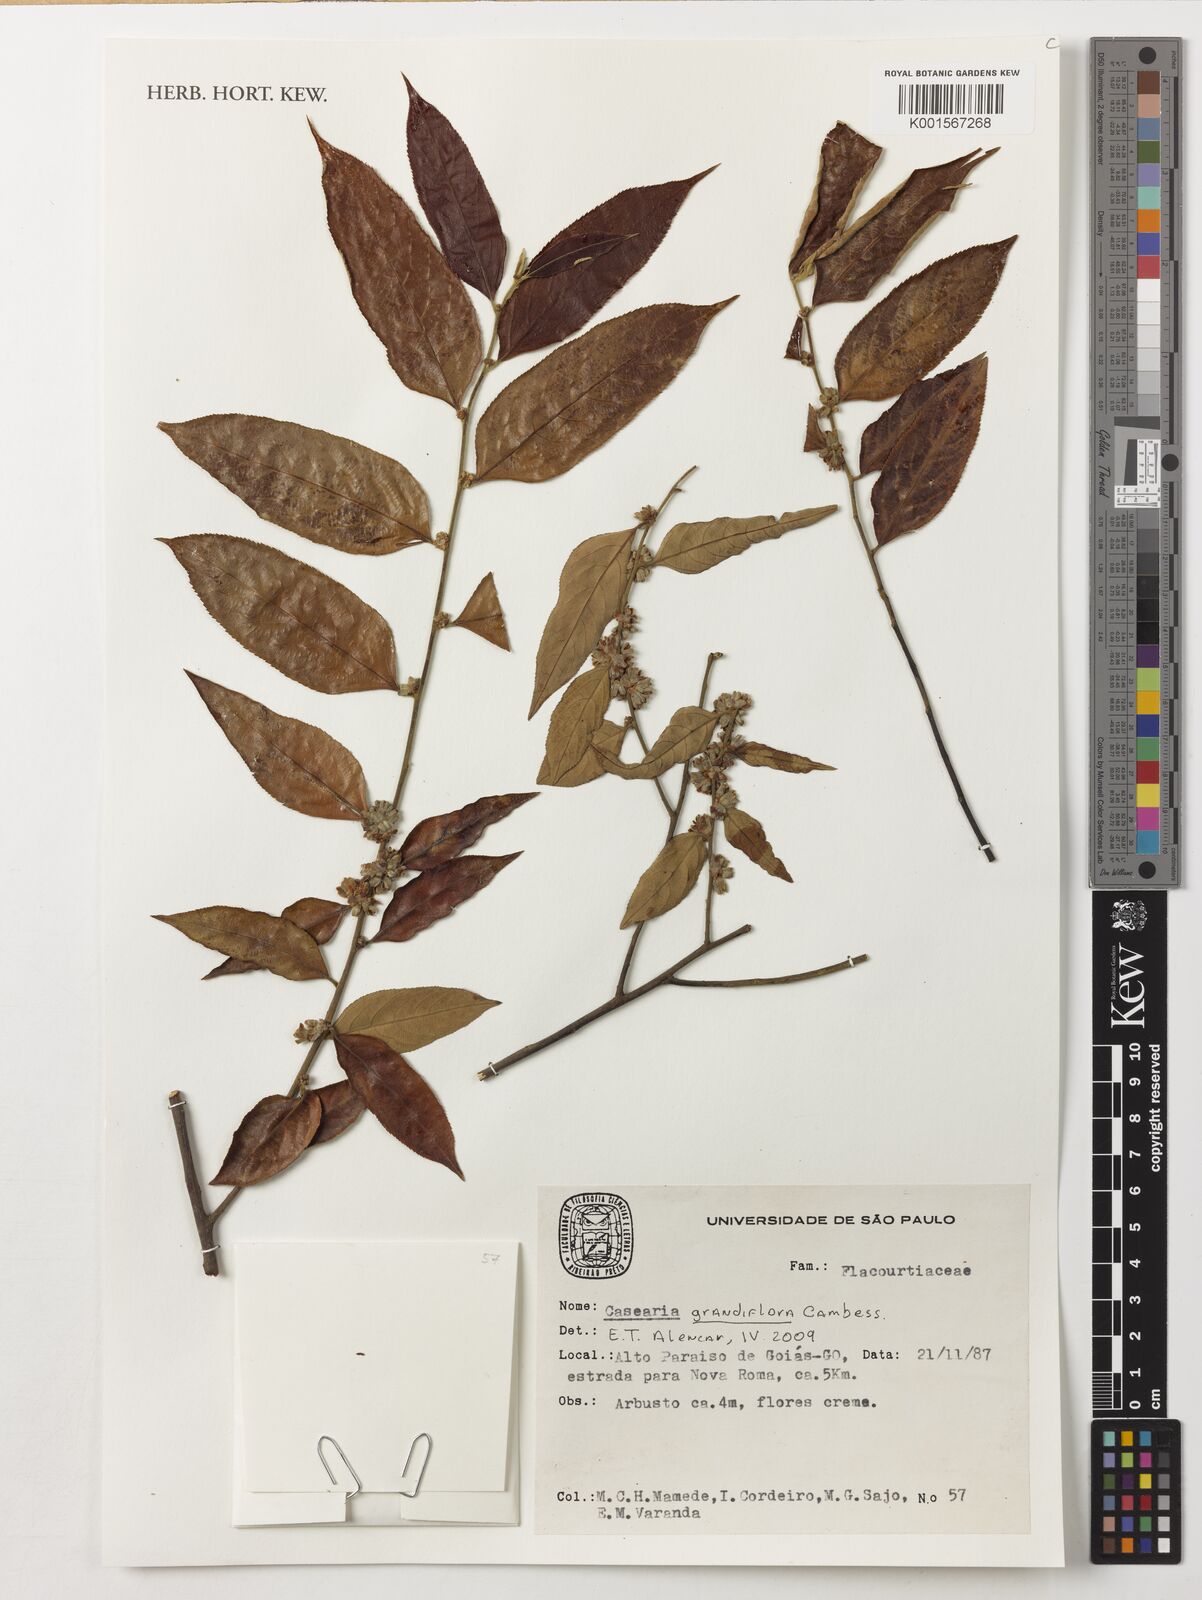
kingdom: Plantae
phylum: Tracheophyta
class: Magnoliopsida
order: Malpighiales
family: Salicaceae
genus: Casearia
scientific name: Casearia grandiflora
